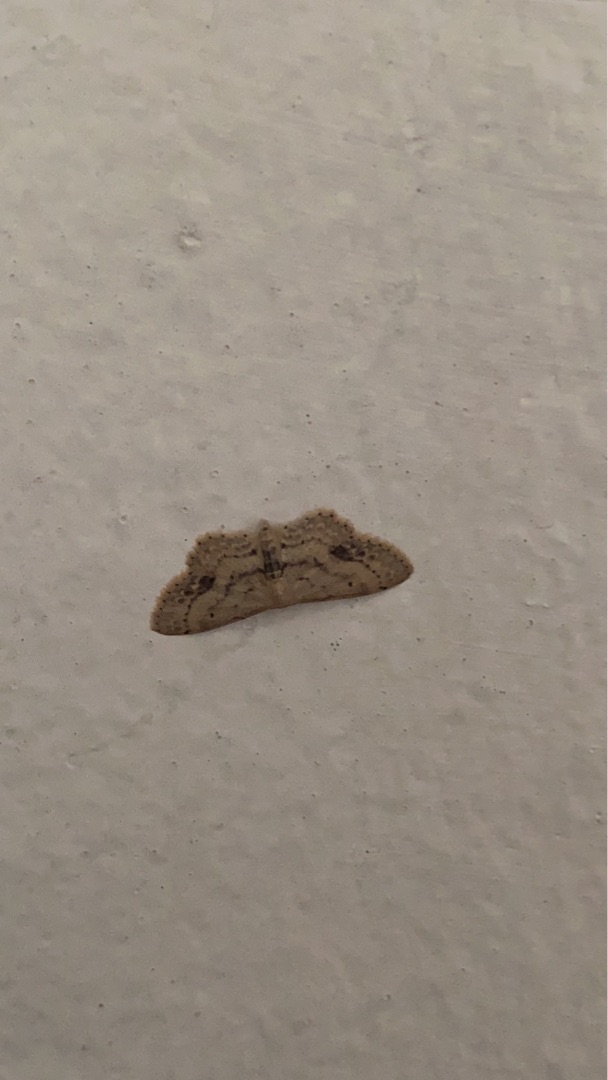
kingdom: Animalia
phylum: Arthropoda
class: Insecta
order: Lepidoptera
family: Geometridae
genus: Idaea
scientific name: Idaea dimidiata
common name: Sortplettet løvmåler
